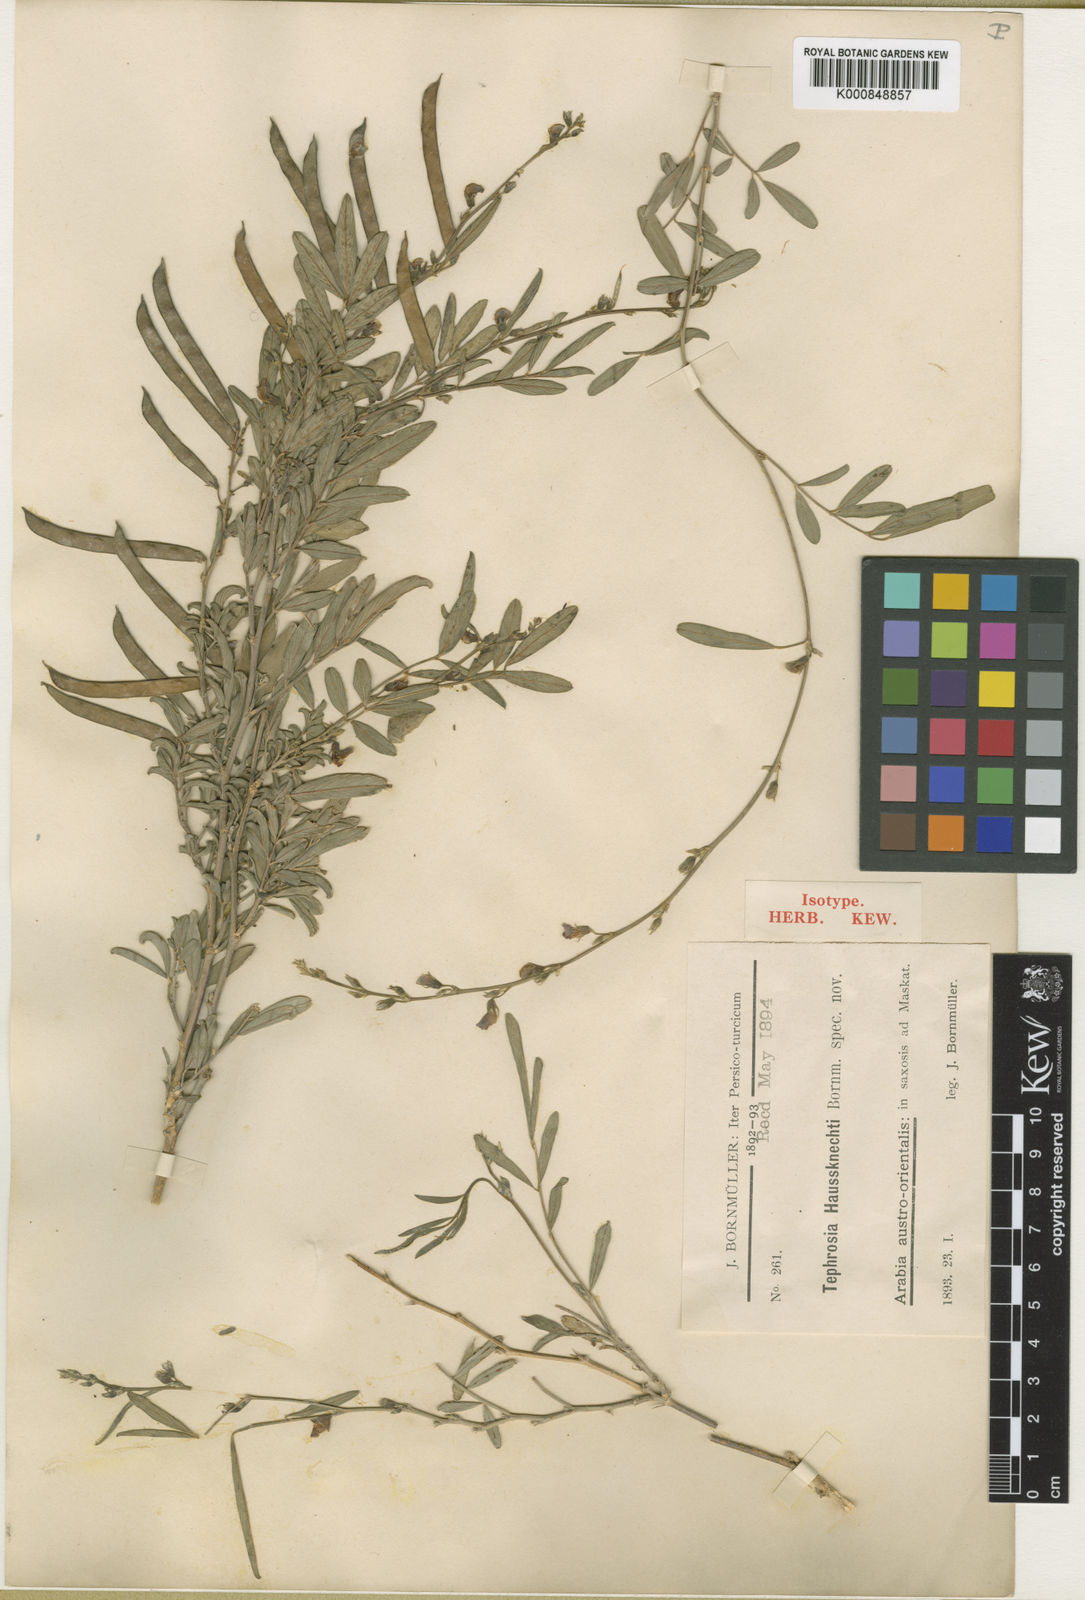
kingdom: Plantae
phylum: Tracheophyta
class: Magnoliopsida
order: Fabales
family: Fabaceae
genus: Tephrosia
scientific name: Tephrosia haussknechtii
